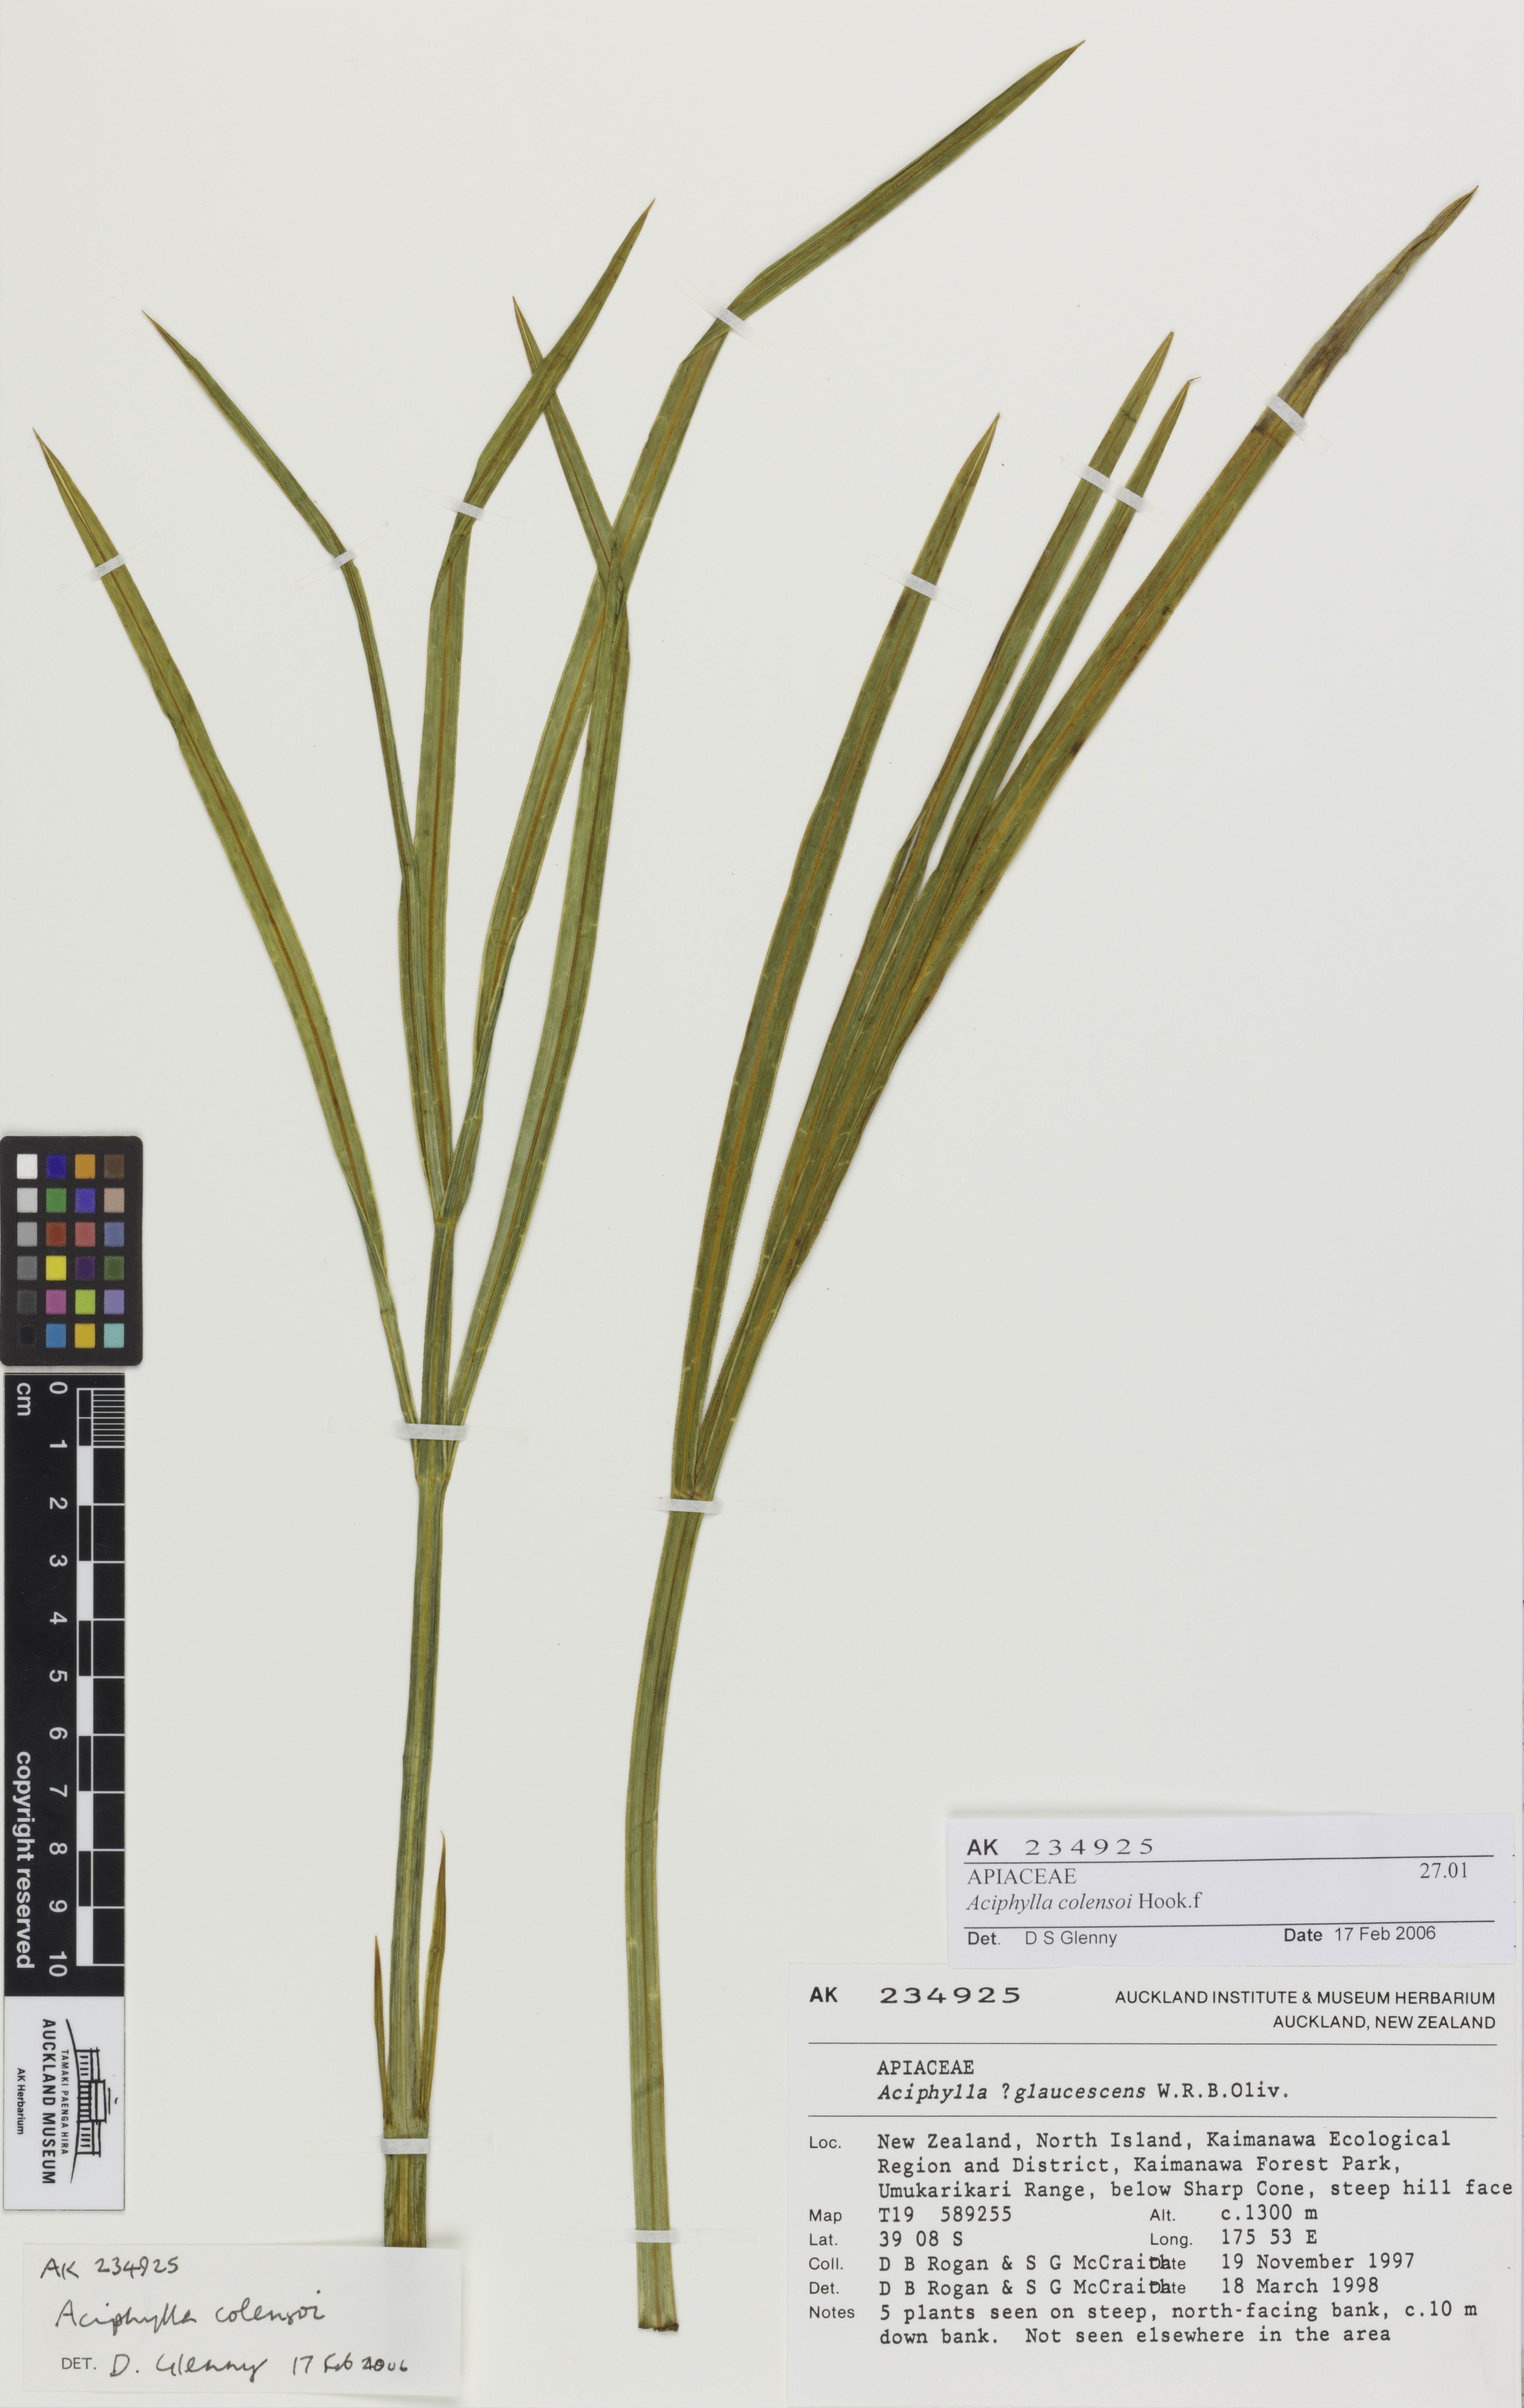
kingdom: Plantae
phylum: Tracheophyta
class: Magnoliopsida
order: Apiales
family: Apiaceae
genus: Aciphylla
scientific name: Aciphylla colensoi
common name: Colenso's spaniard
